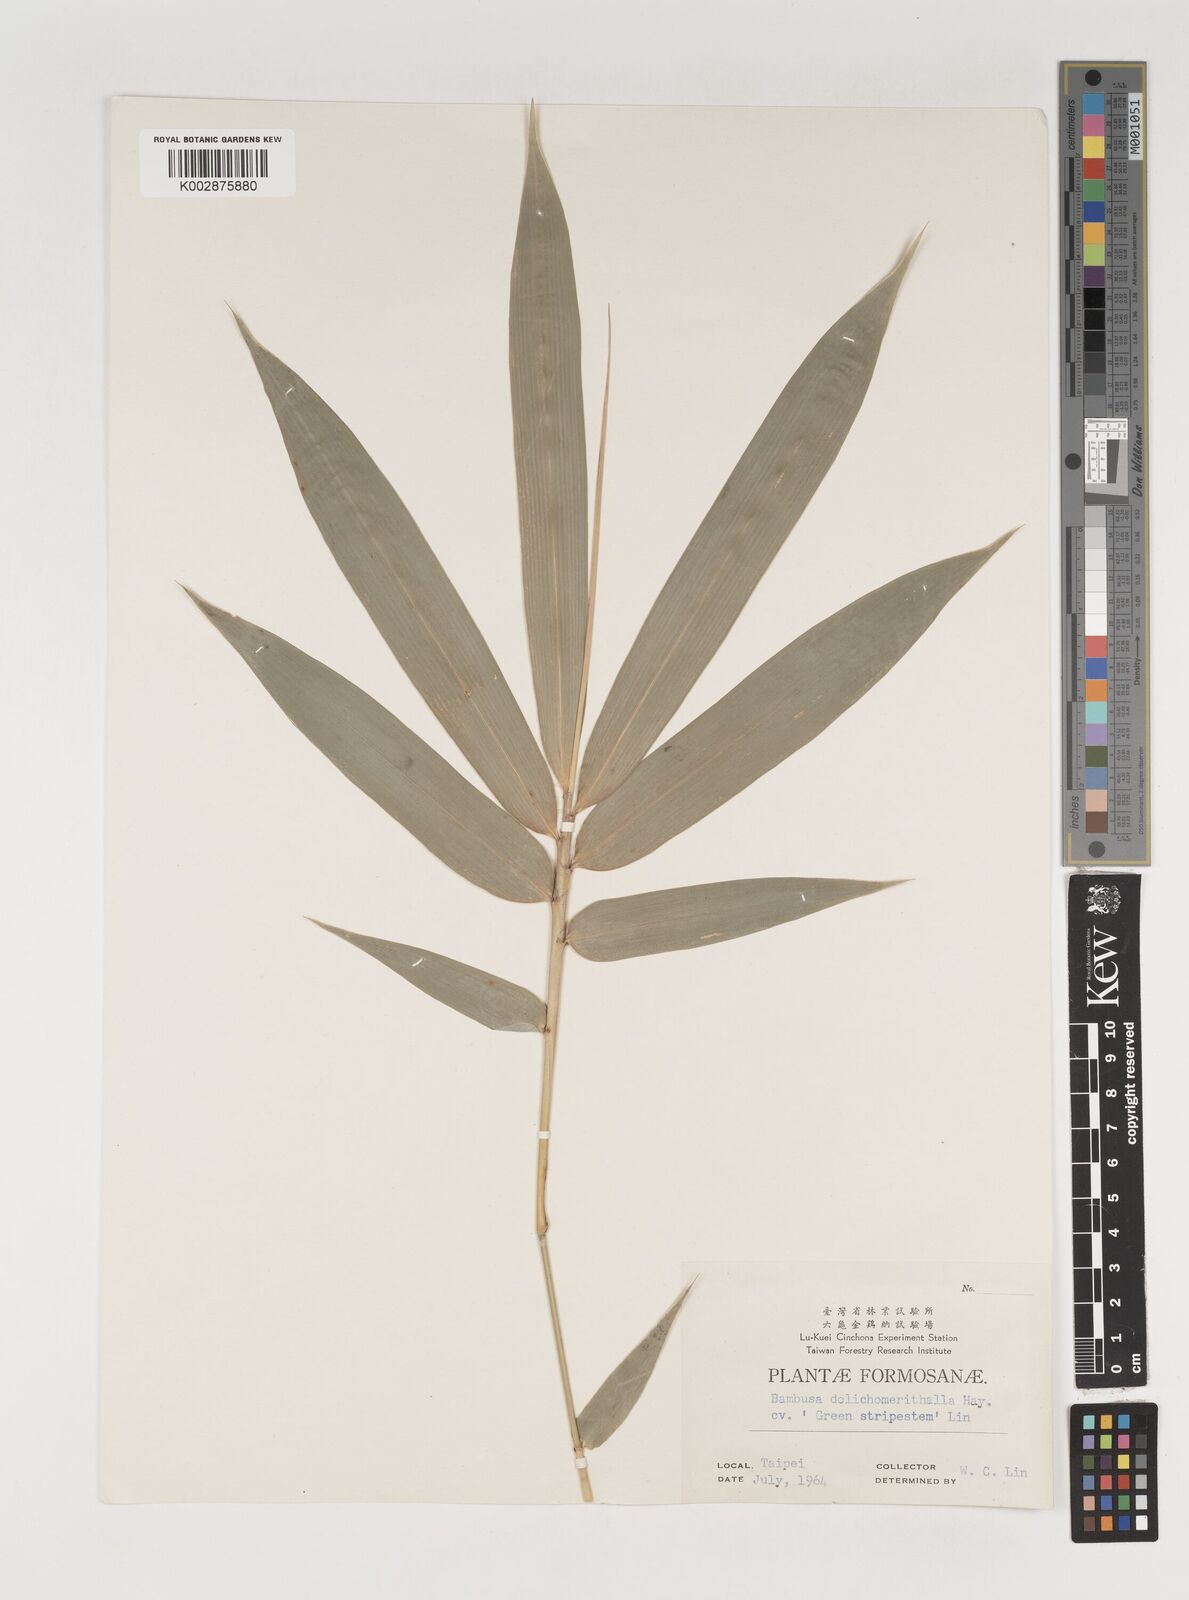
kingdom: Plantae
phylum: Tracheophyta
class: Liliopsida
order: Poales
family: Poaceae
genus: Bambusa
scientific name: Bambusa multiplex
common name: Hedge bamboo
